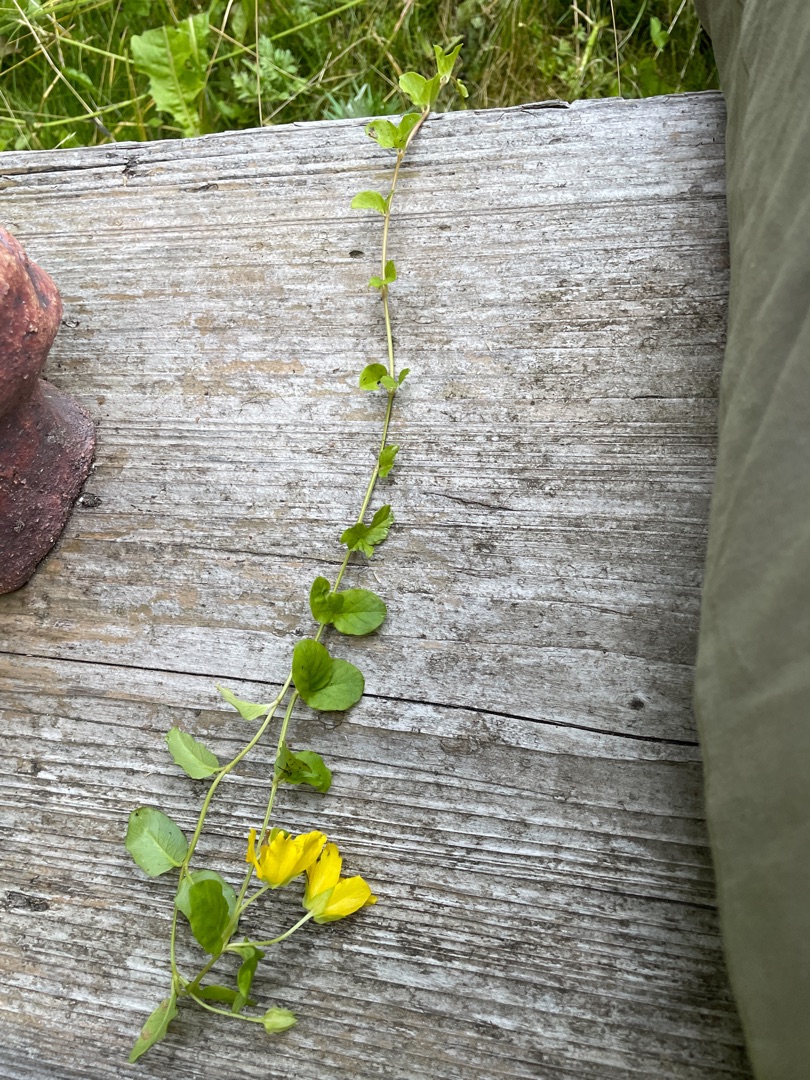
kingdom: Plantae
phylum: Tracheophyta
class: Magnoliopsida
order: Ericales
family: Primulaceae
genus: Lysimachia
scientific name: Lysimachia nummularia
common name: Pengebladet fredløs
